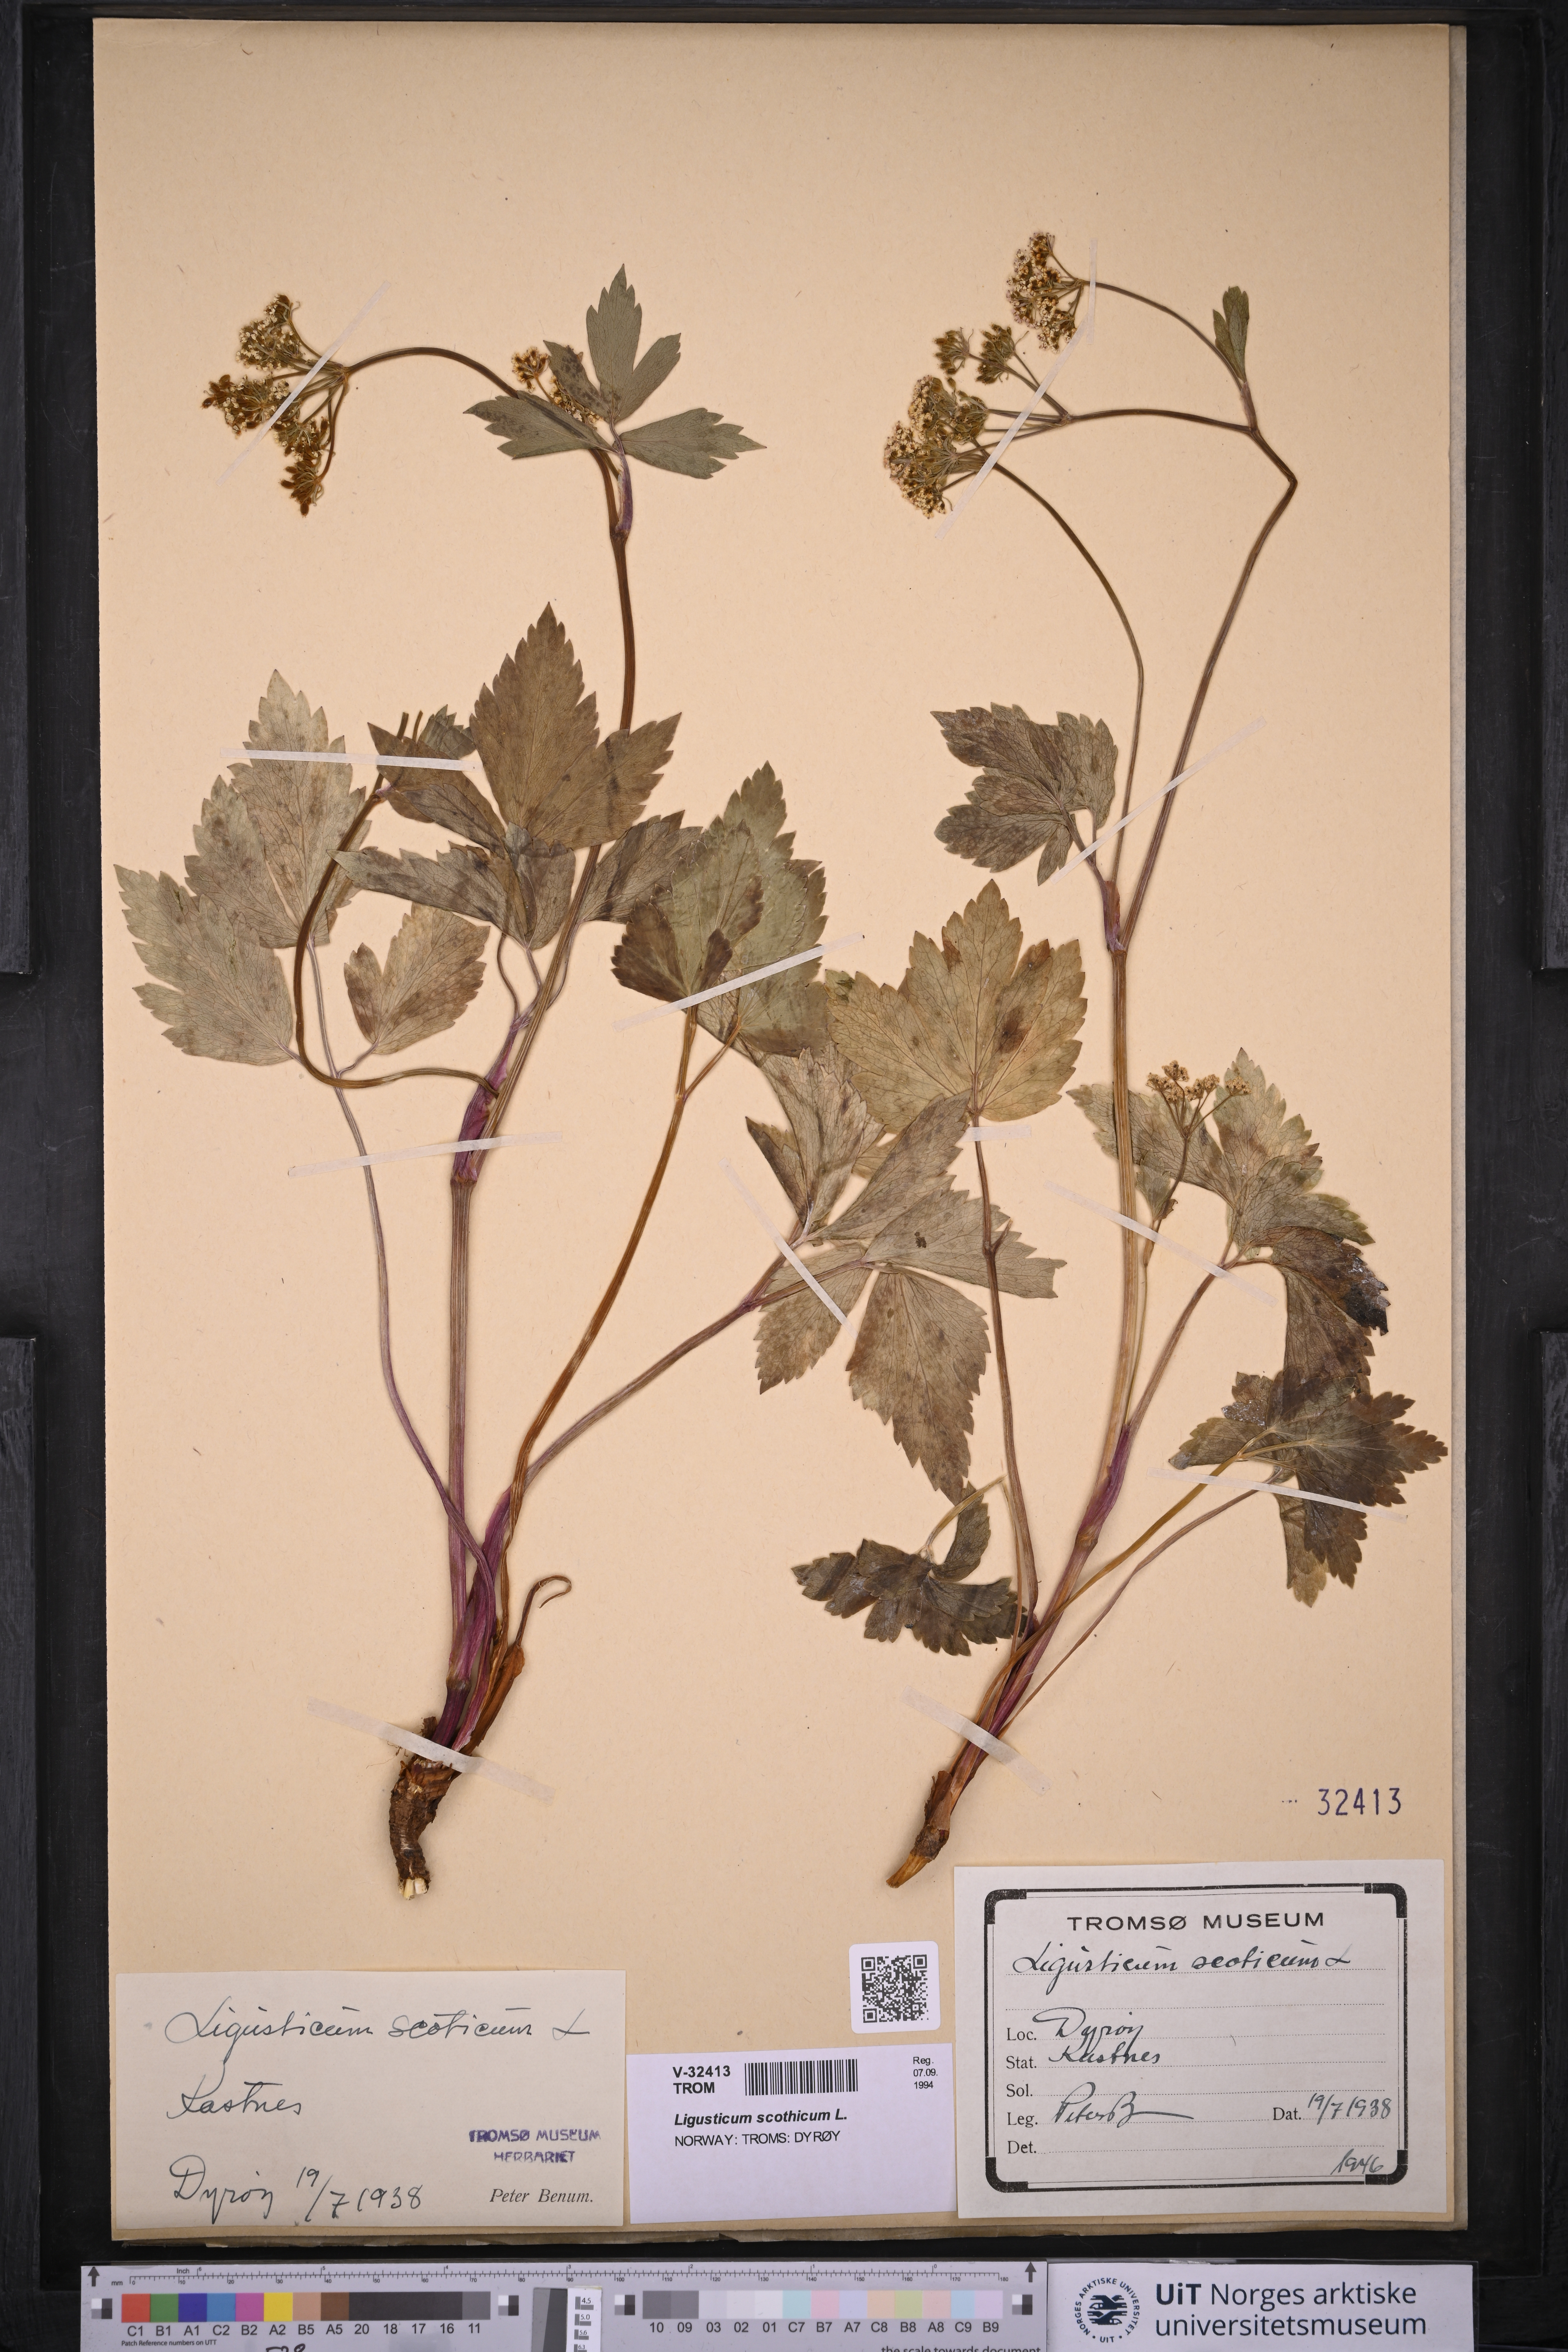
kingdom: Plantae
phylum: Tracheophyta
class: Magnoliopsida
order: Apiales
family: Apiaceae
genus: Ligusticum
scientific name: Ligusticum scothicum
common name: Beach lovage
